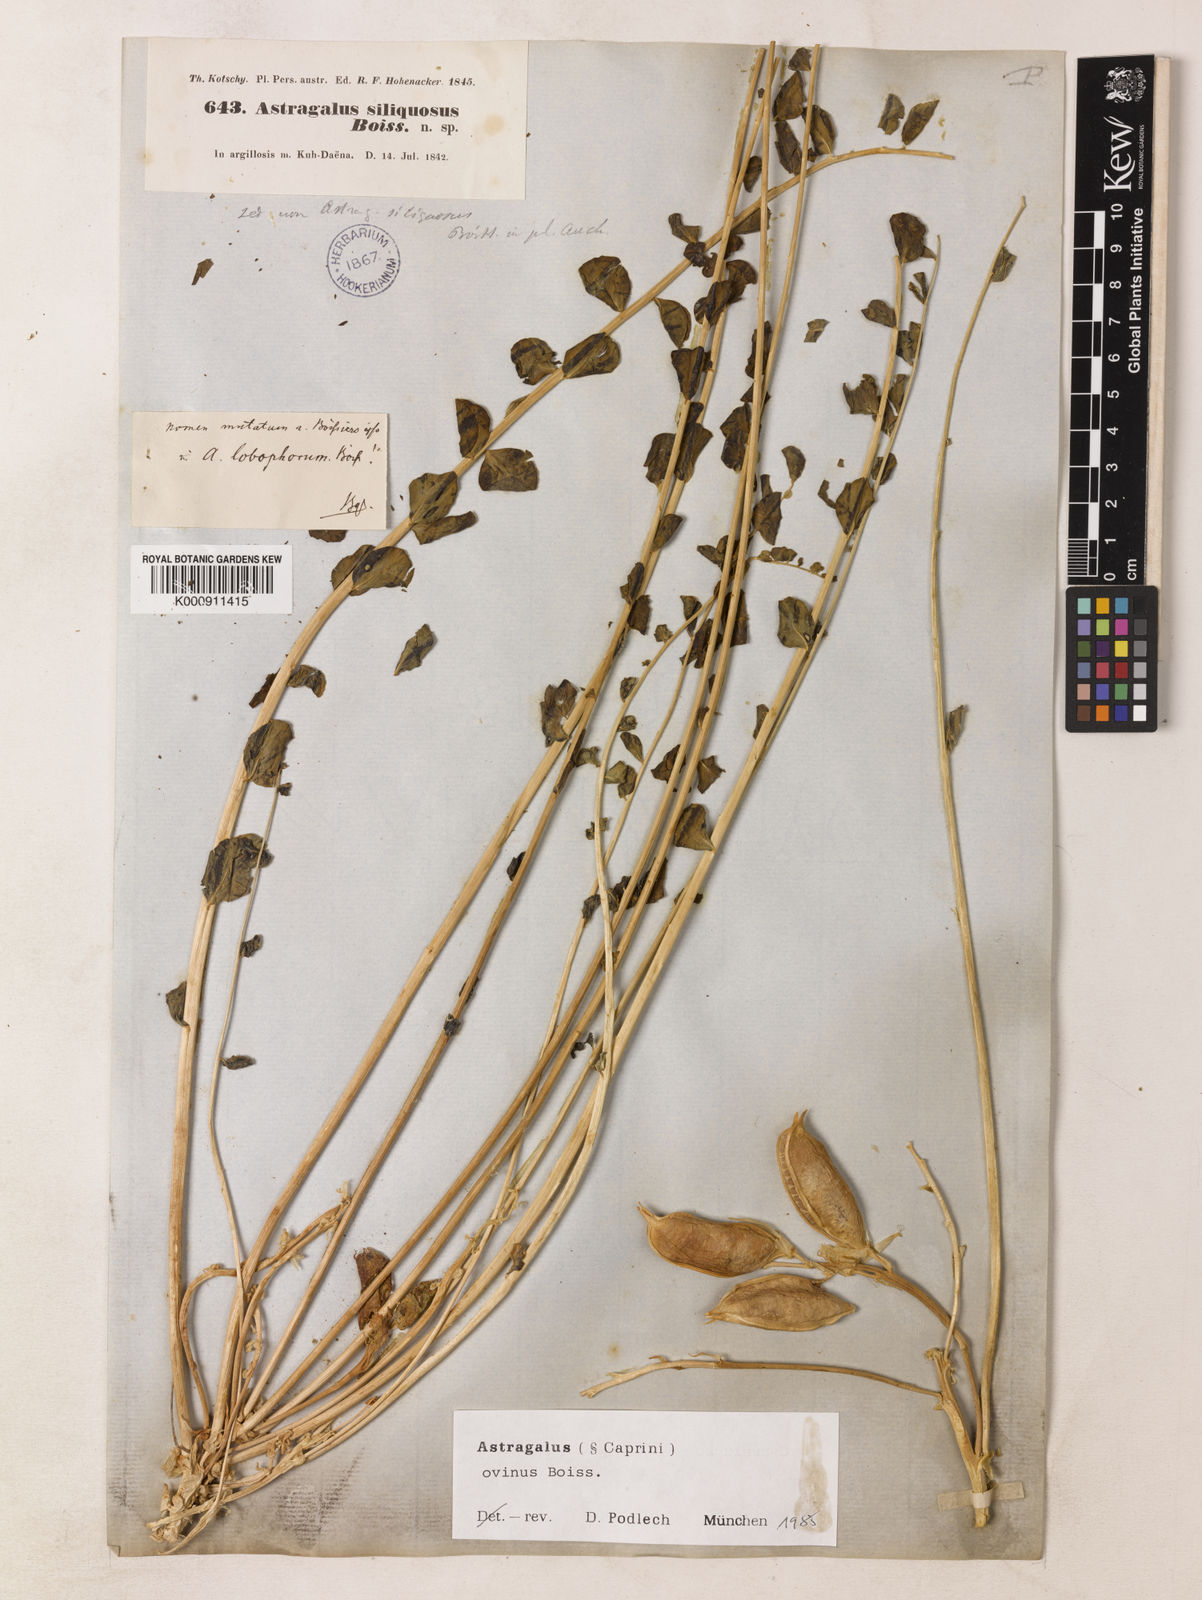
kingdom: Plantae
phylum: Tracheophyta
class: Magnoliopsida
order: Fabales
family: Fabaceae
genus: Astragalus
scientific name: Astragalus lobophorus
